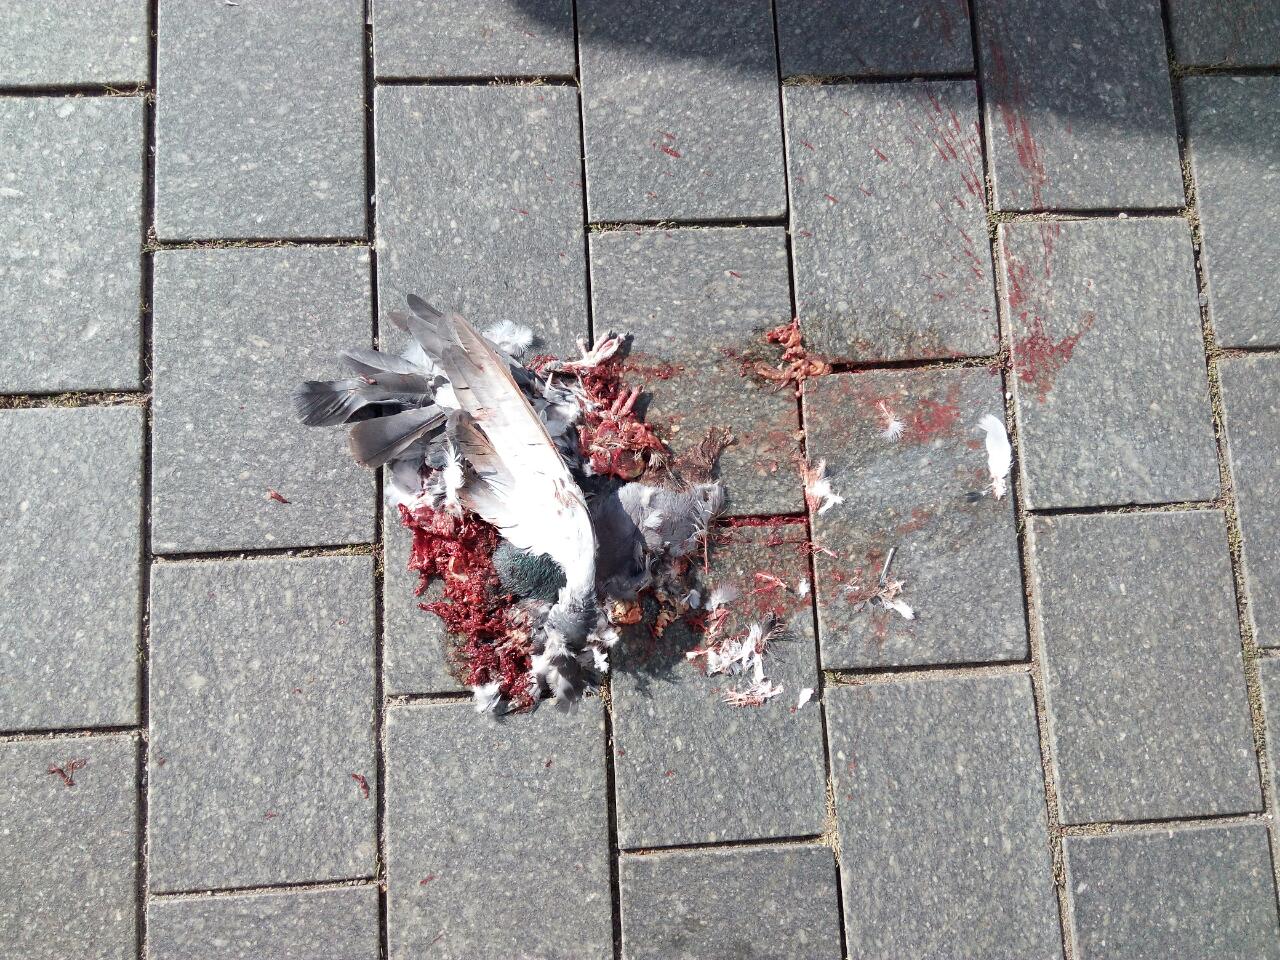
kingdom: Animalia
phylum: Chordata
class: Aves
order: Columbiformes
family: Columbidae
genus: Columba
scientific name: Columba livia
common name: Rock pigeon
